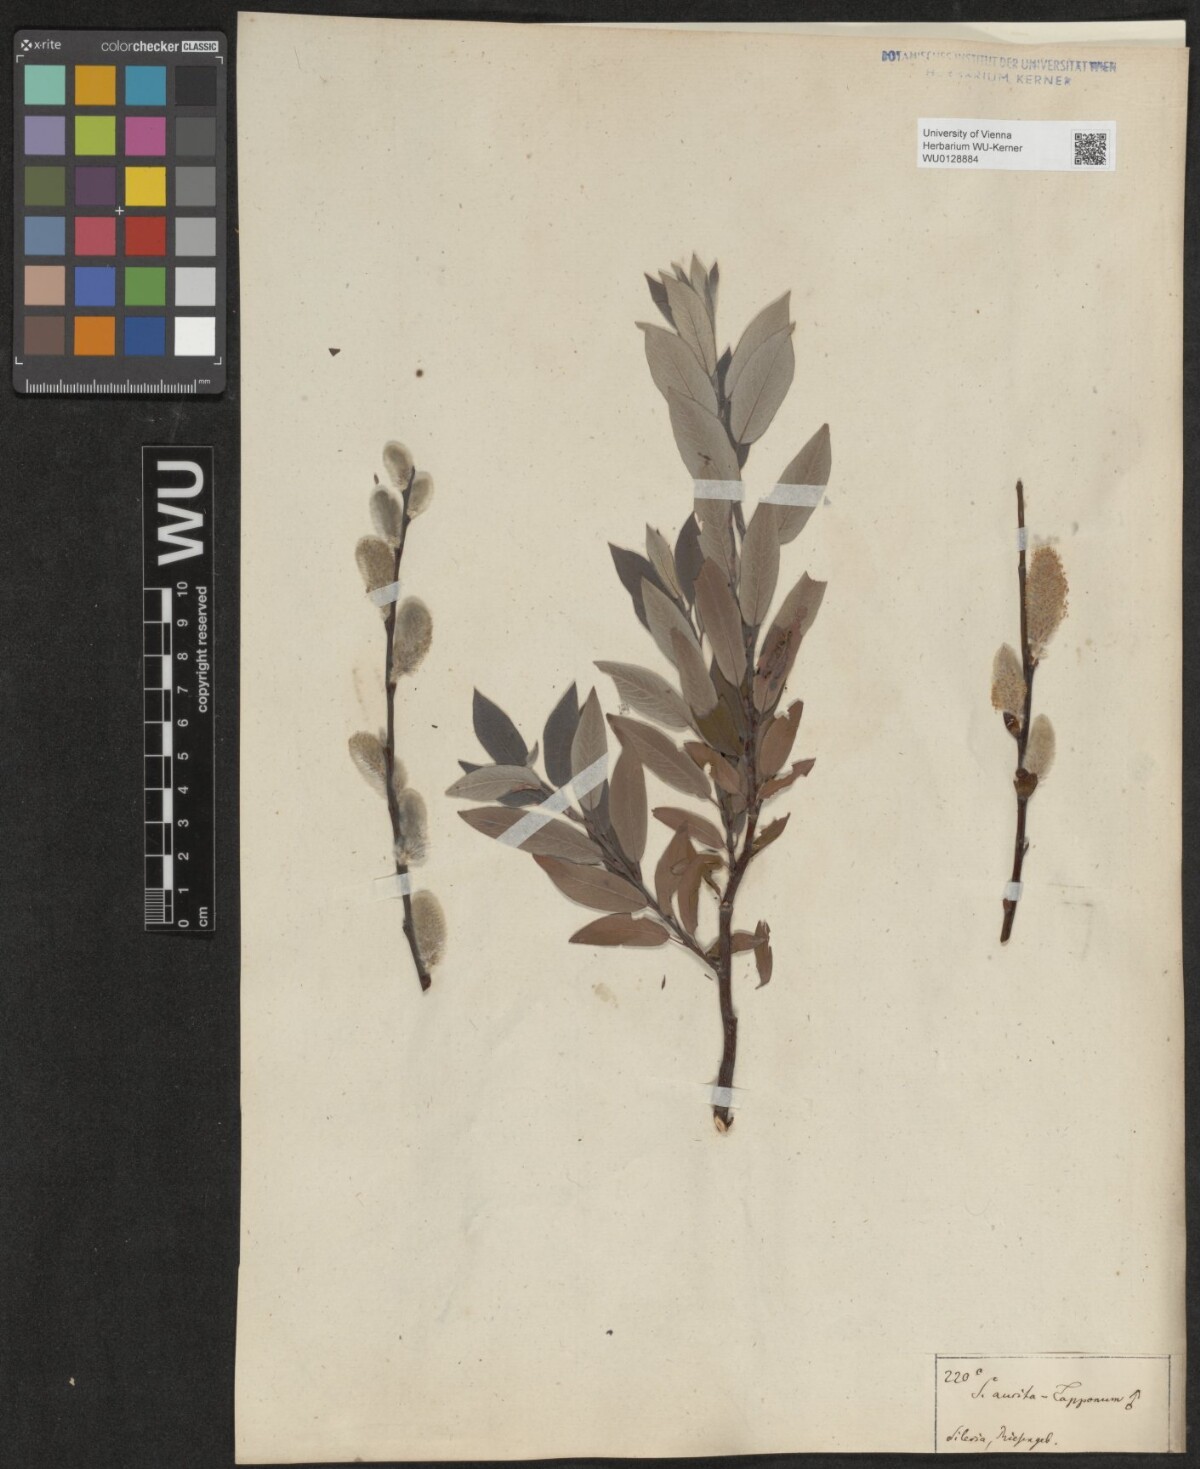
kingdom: Plantae
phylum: Tracheophyta
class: Magnoliopsida
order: Malpighiales
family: Salicaceae
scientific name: Salicaceae
